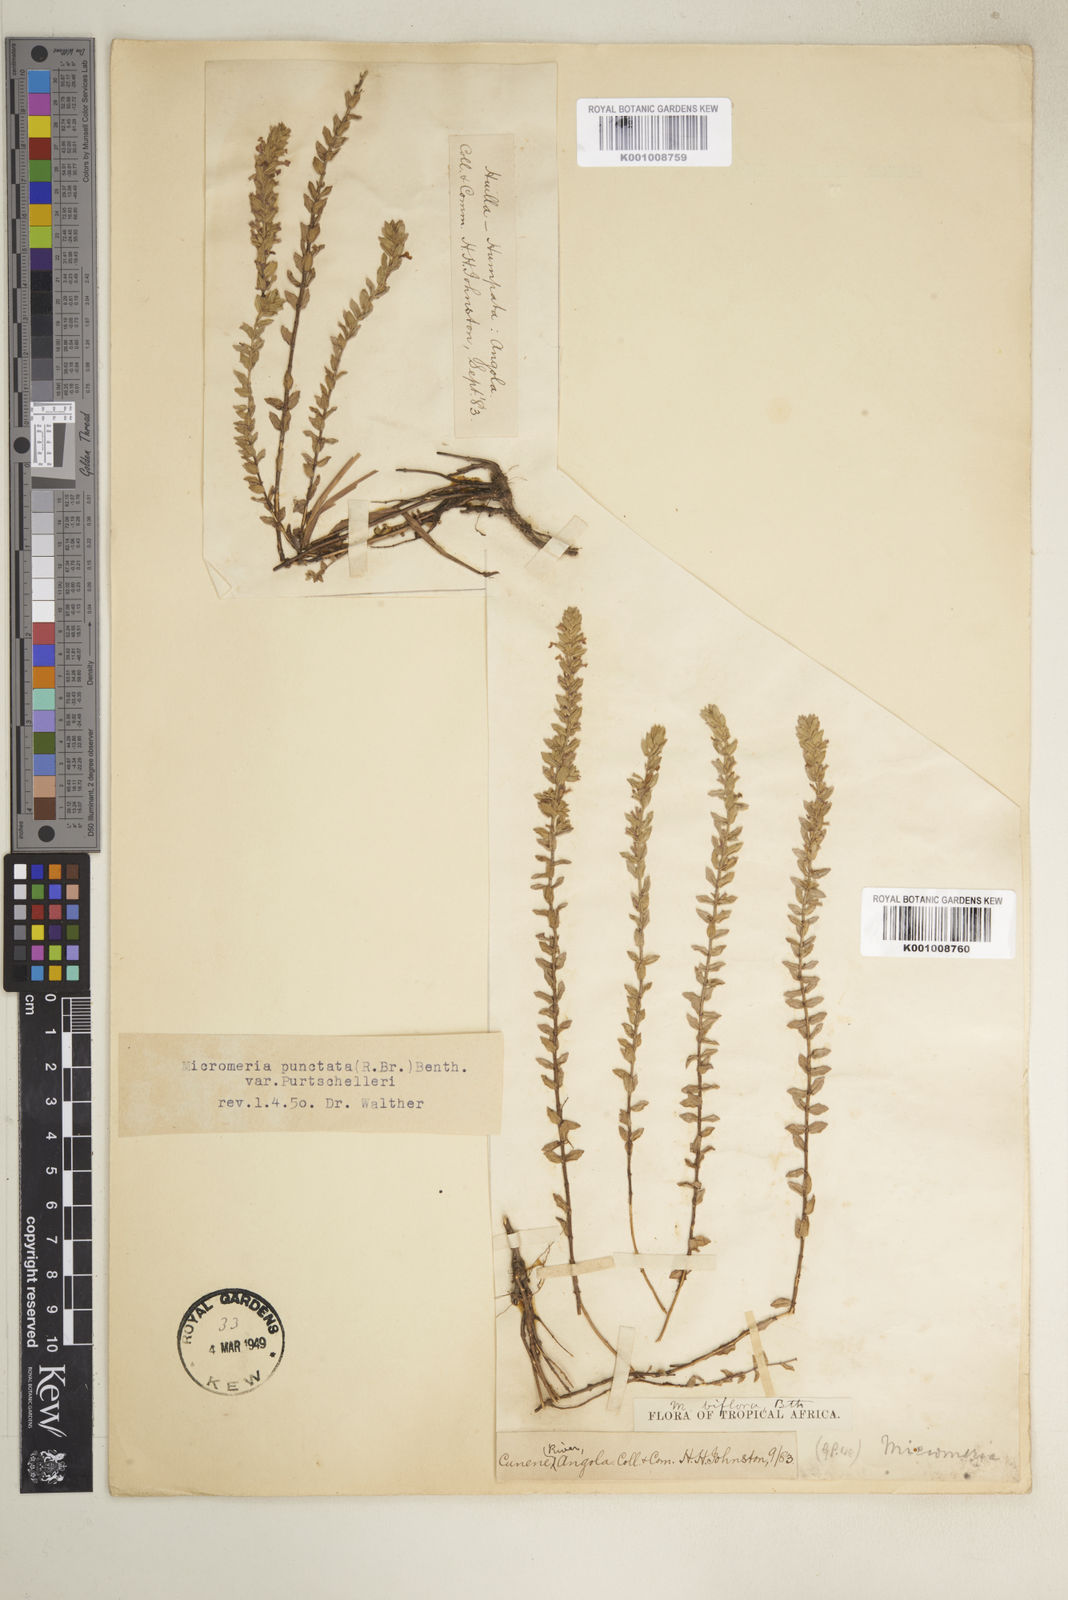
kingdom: Plantae
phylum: Tracheophyta
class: Magnoliopsida
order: Lamiales
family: Lamiaceae
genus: Micromeria
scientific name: Micromeria imbricata
